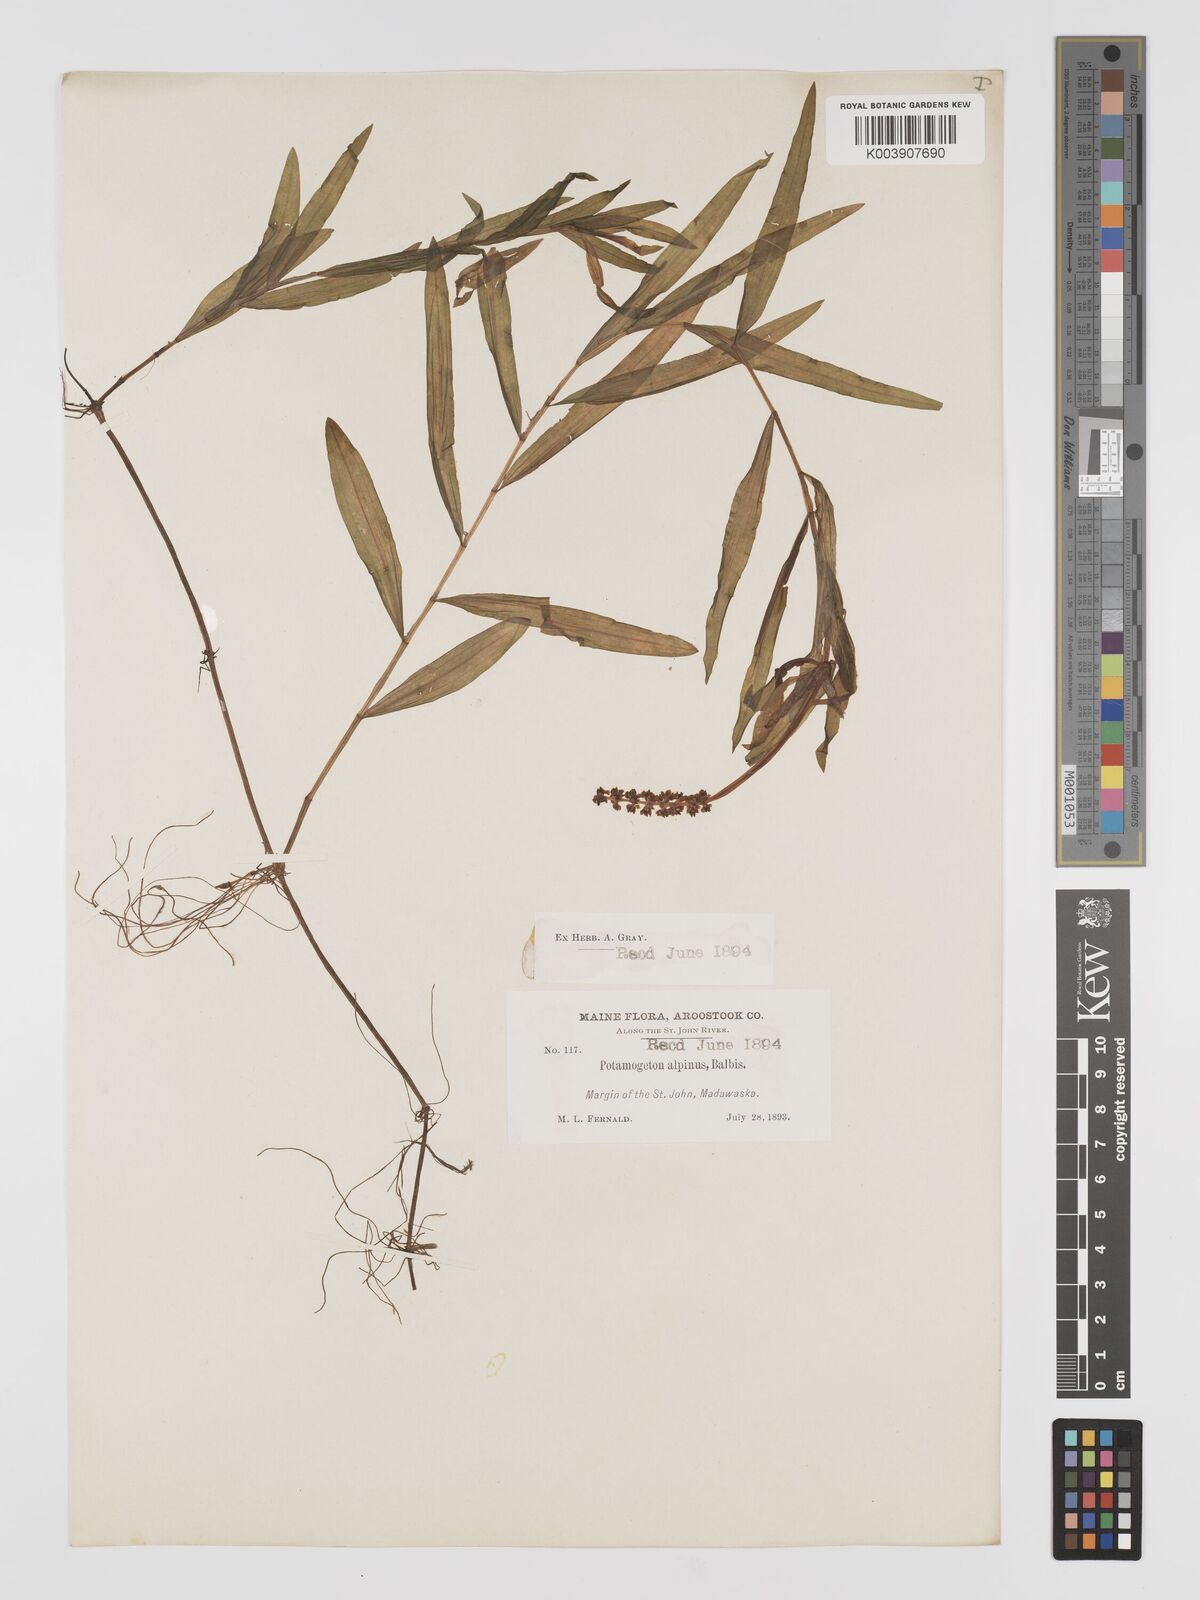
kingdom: Plantae
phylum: Tracheophyta
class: Liliopsida
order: Alismatales
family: Potamogetonaceae
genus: Potamogeton
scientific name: Potamogeton alpinus
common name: Red pondweed
